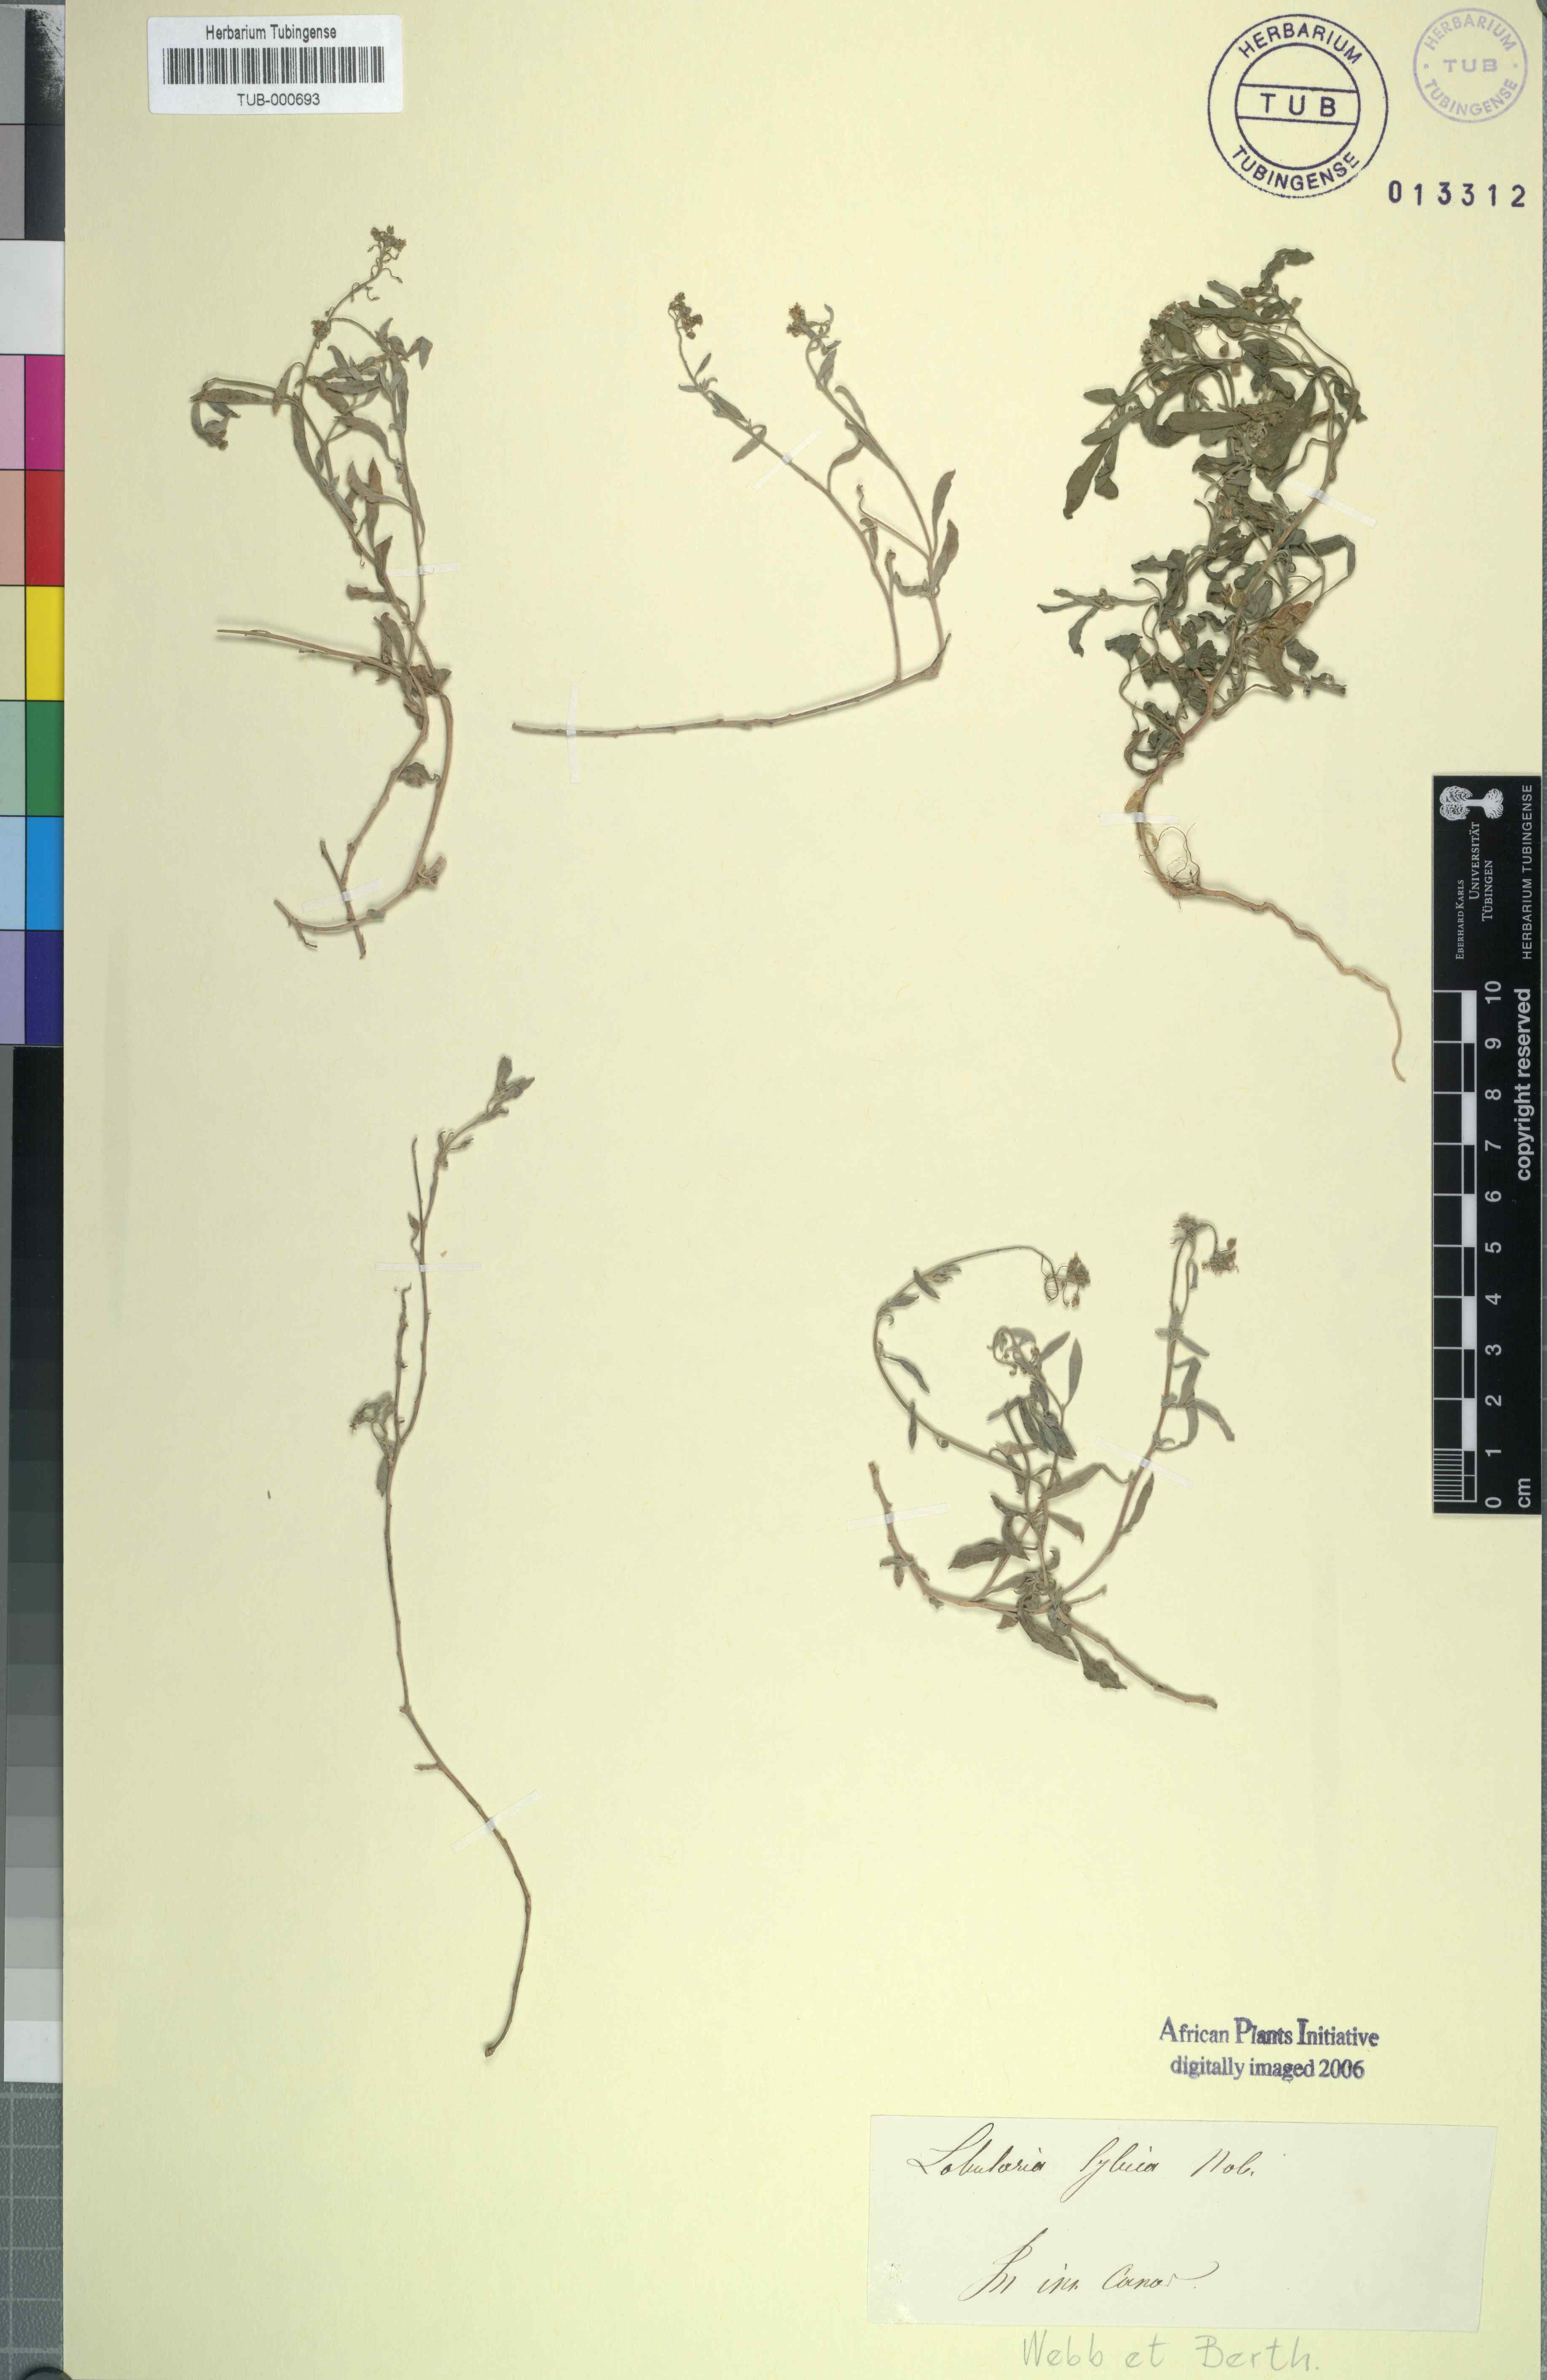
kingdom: Plantae
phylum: Tracheophyta
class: Magnoliopsida
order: Brassicales
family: Brassicaceae
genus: Lobularia
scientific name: Lobularia libyca
